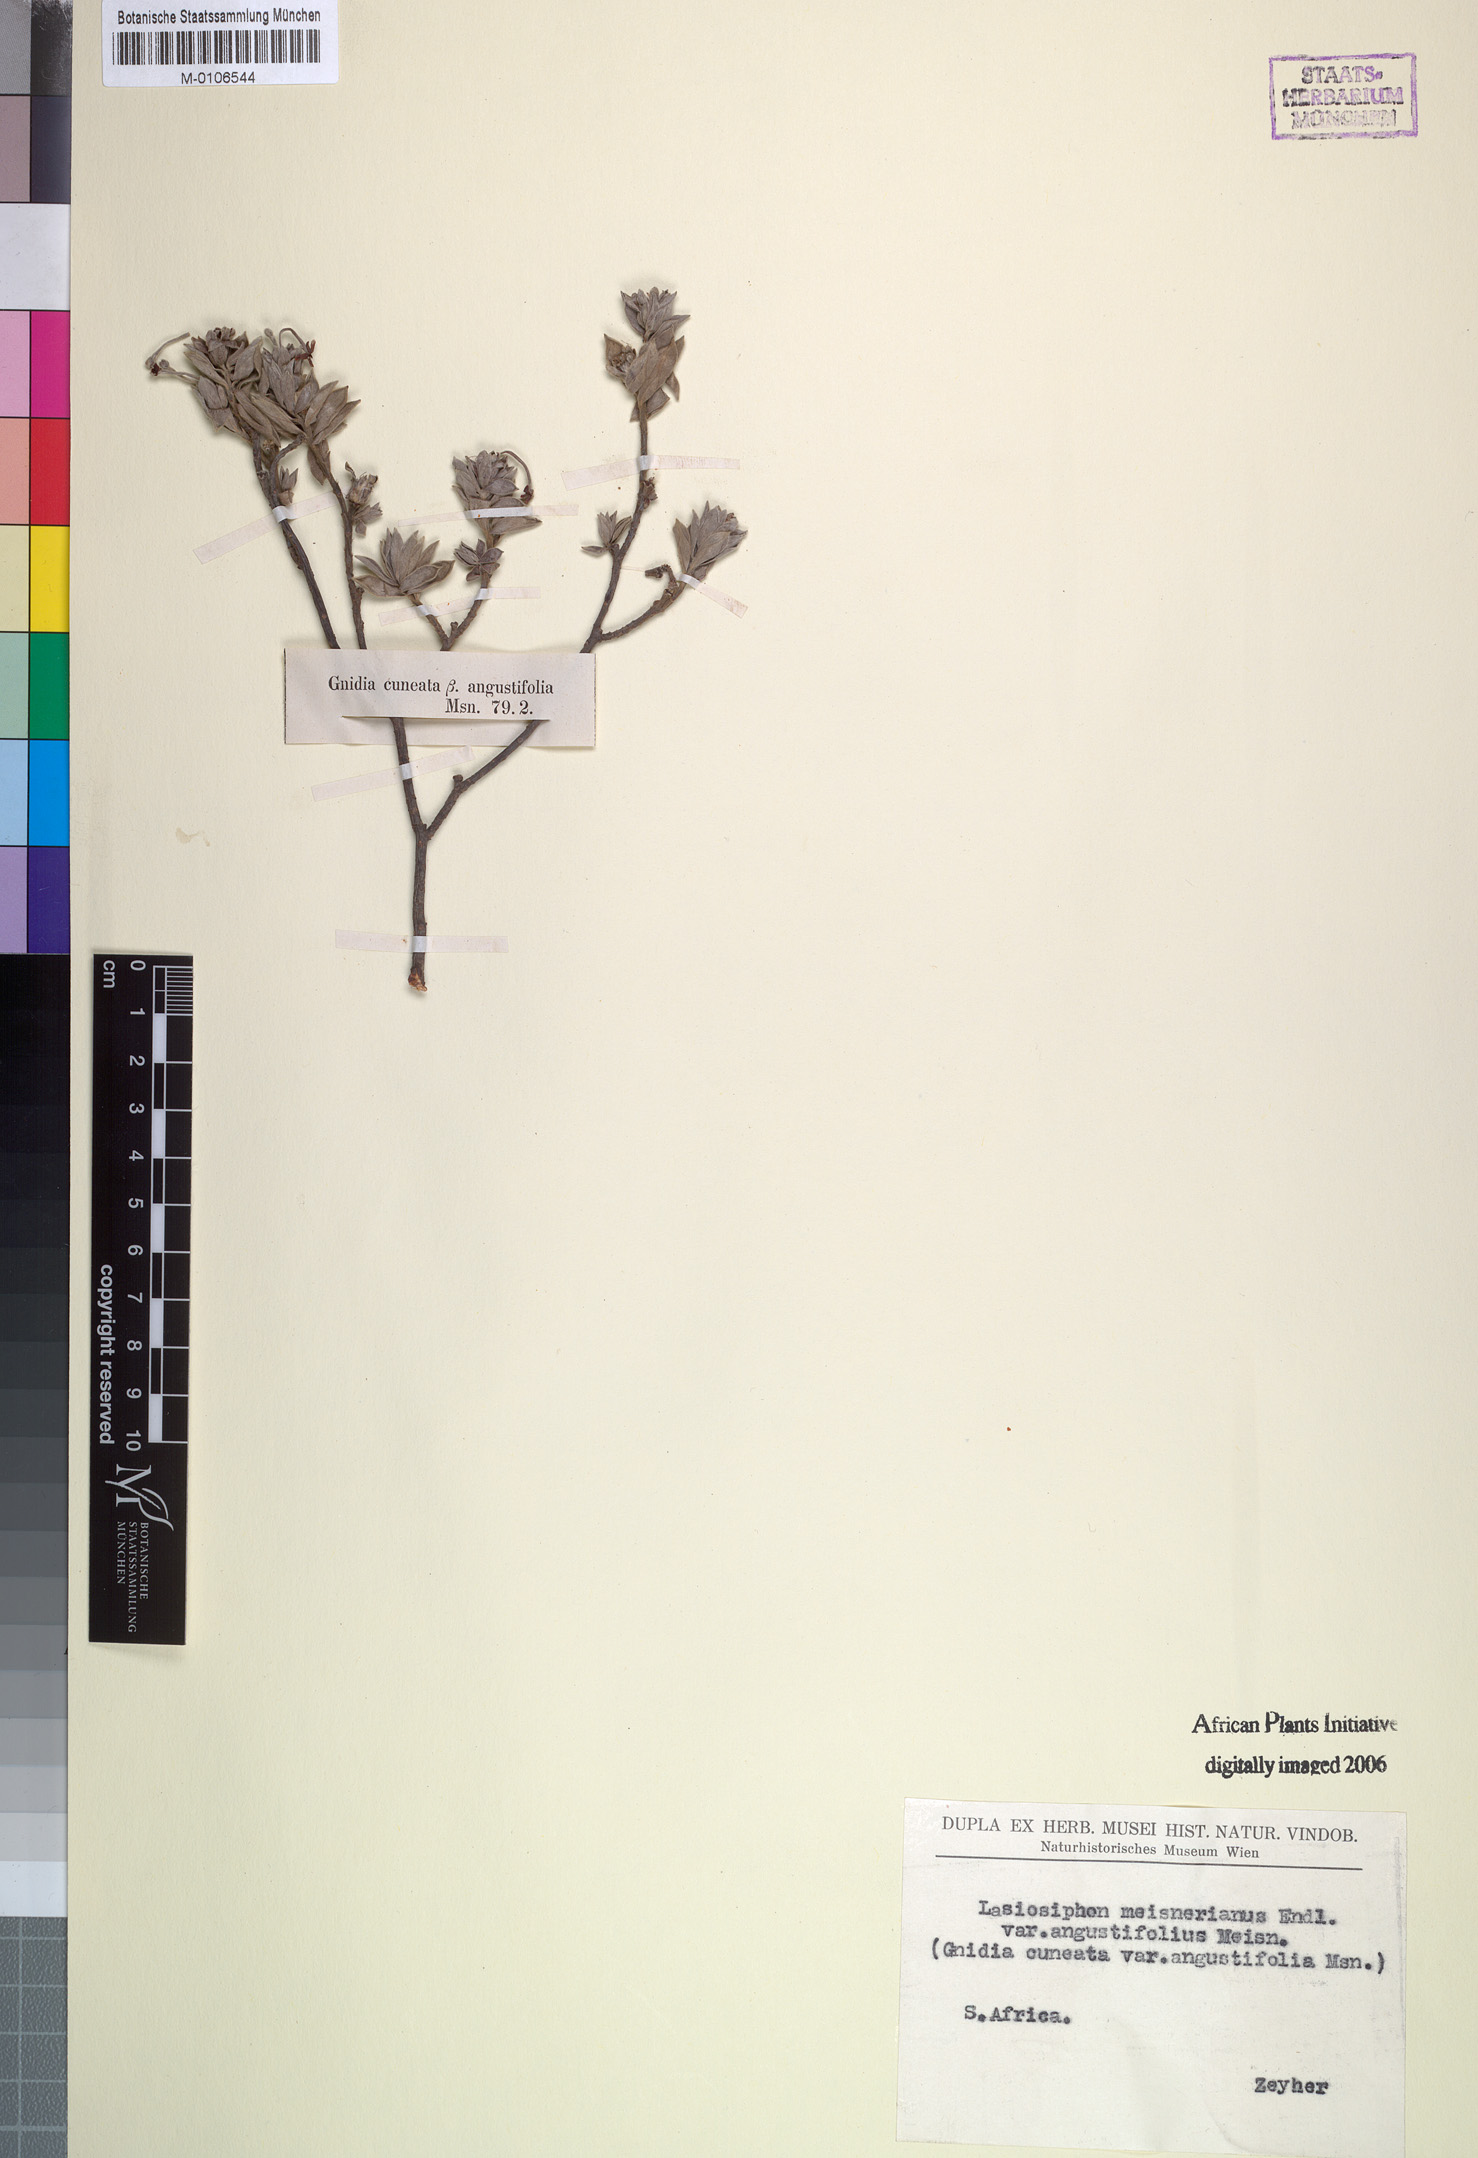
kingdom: Plantae
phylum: Tracheophyta
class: Magnoliopsida
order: Malvales
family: Thymelaeaceae
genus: Gnidia
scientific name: Gnidia cuneata
